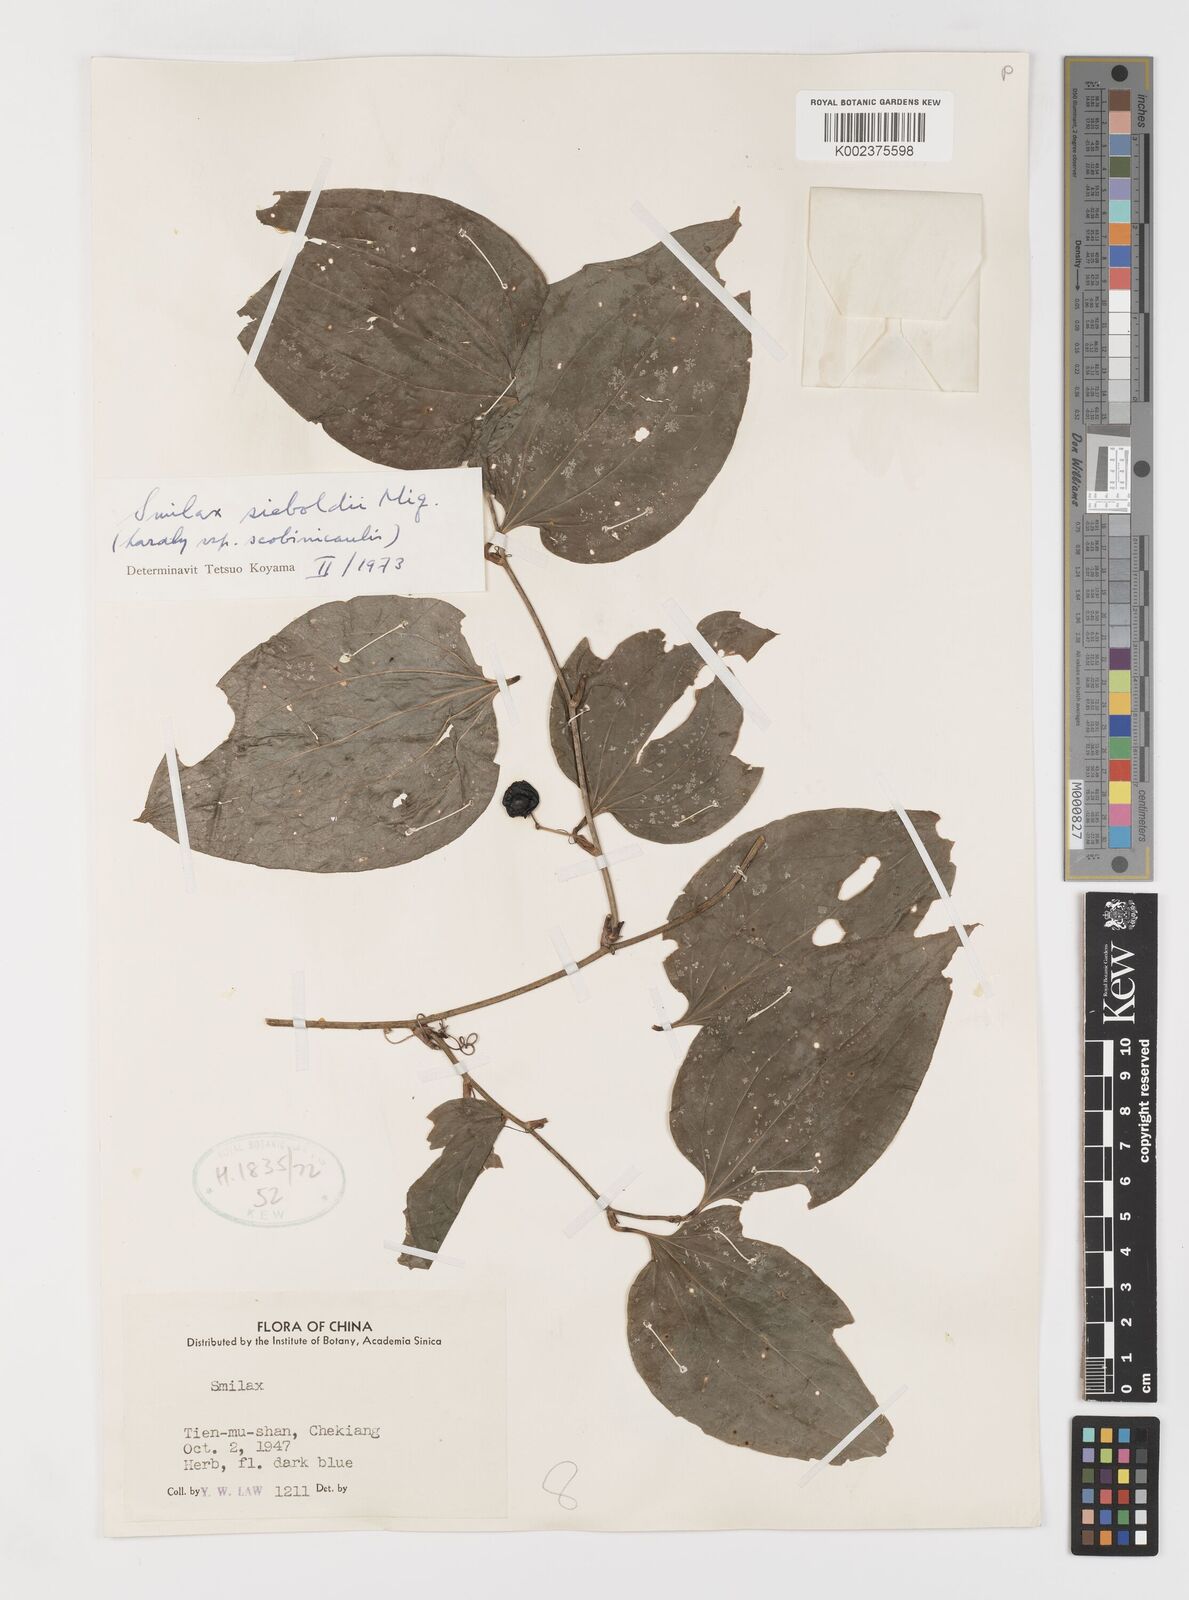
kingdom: Plantae
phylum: Tracheophyta
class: Liliopsida
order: Liliales
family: Smilacaceae
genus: Smilax
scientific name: Smilax sieboldii
